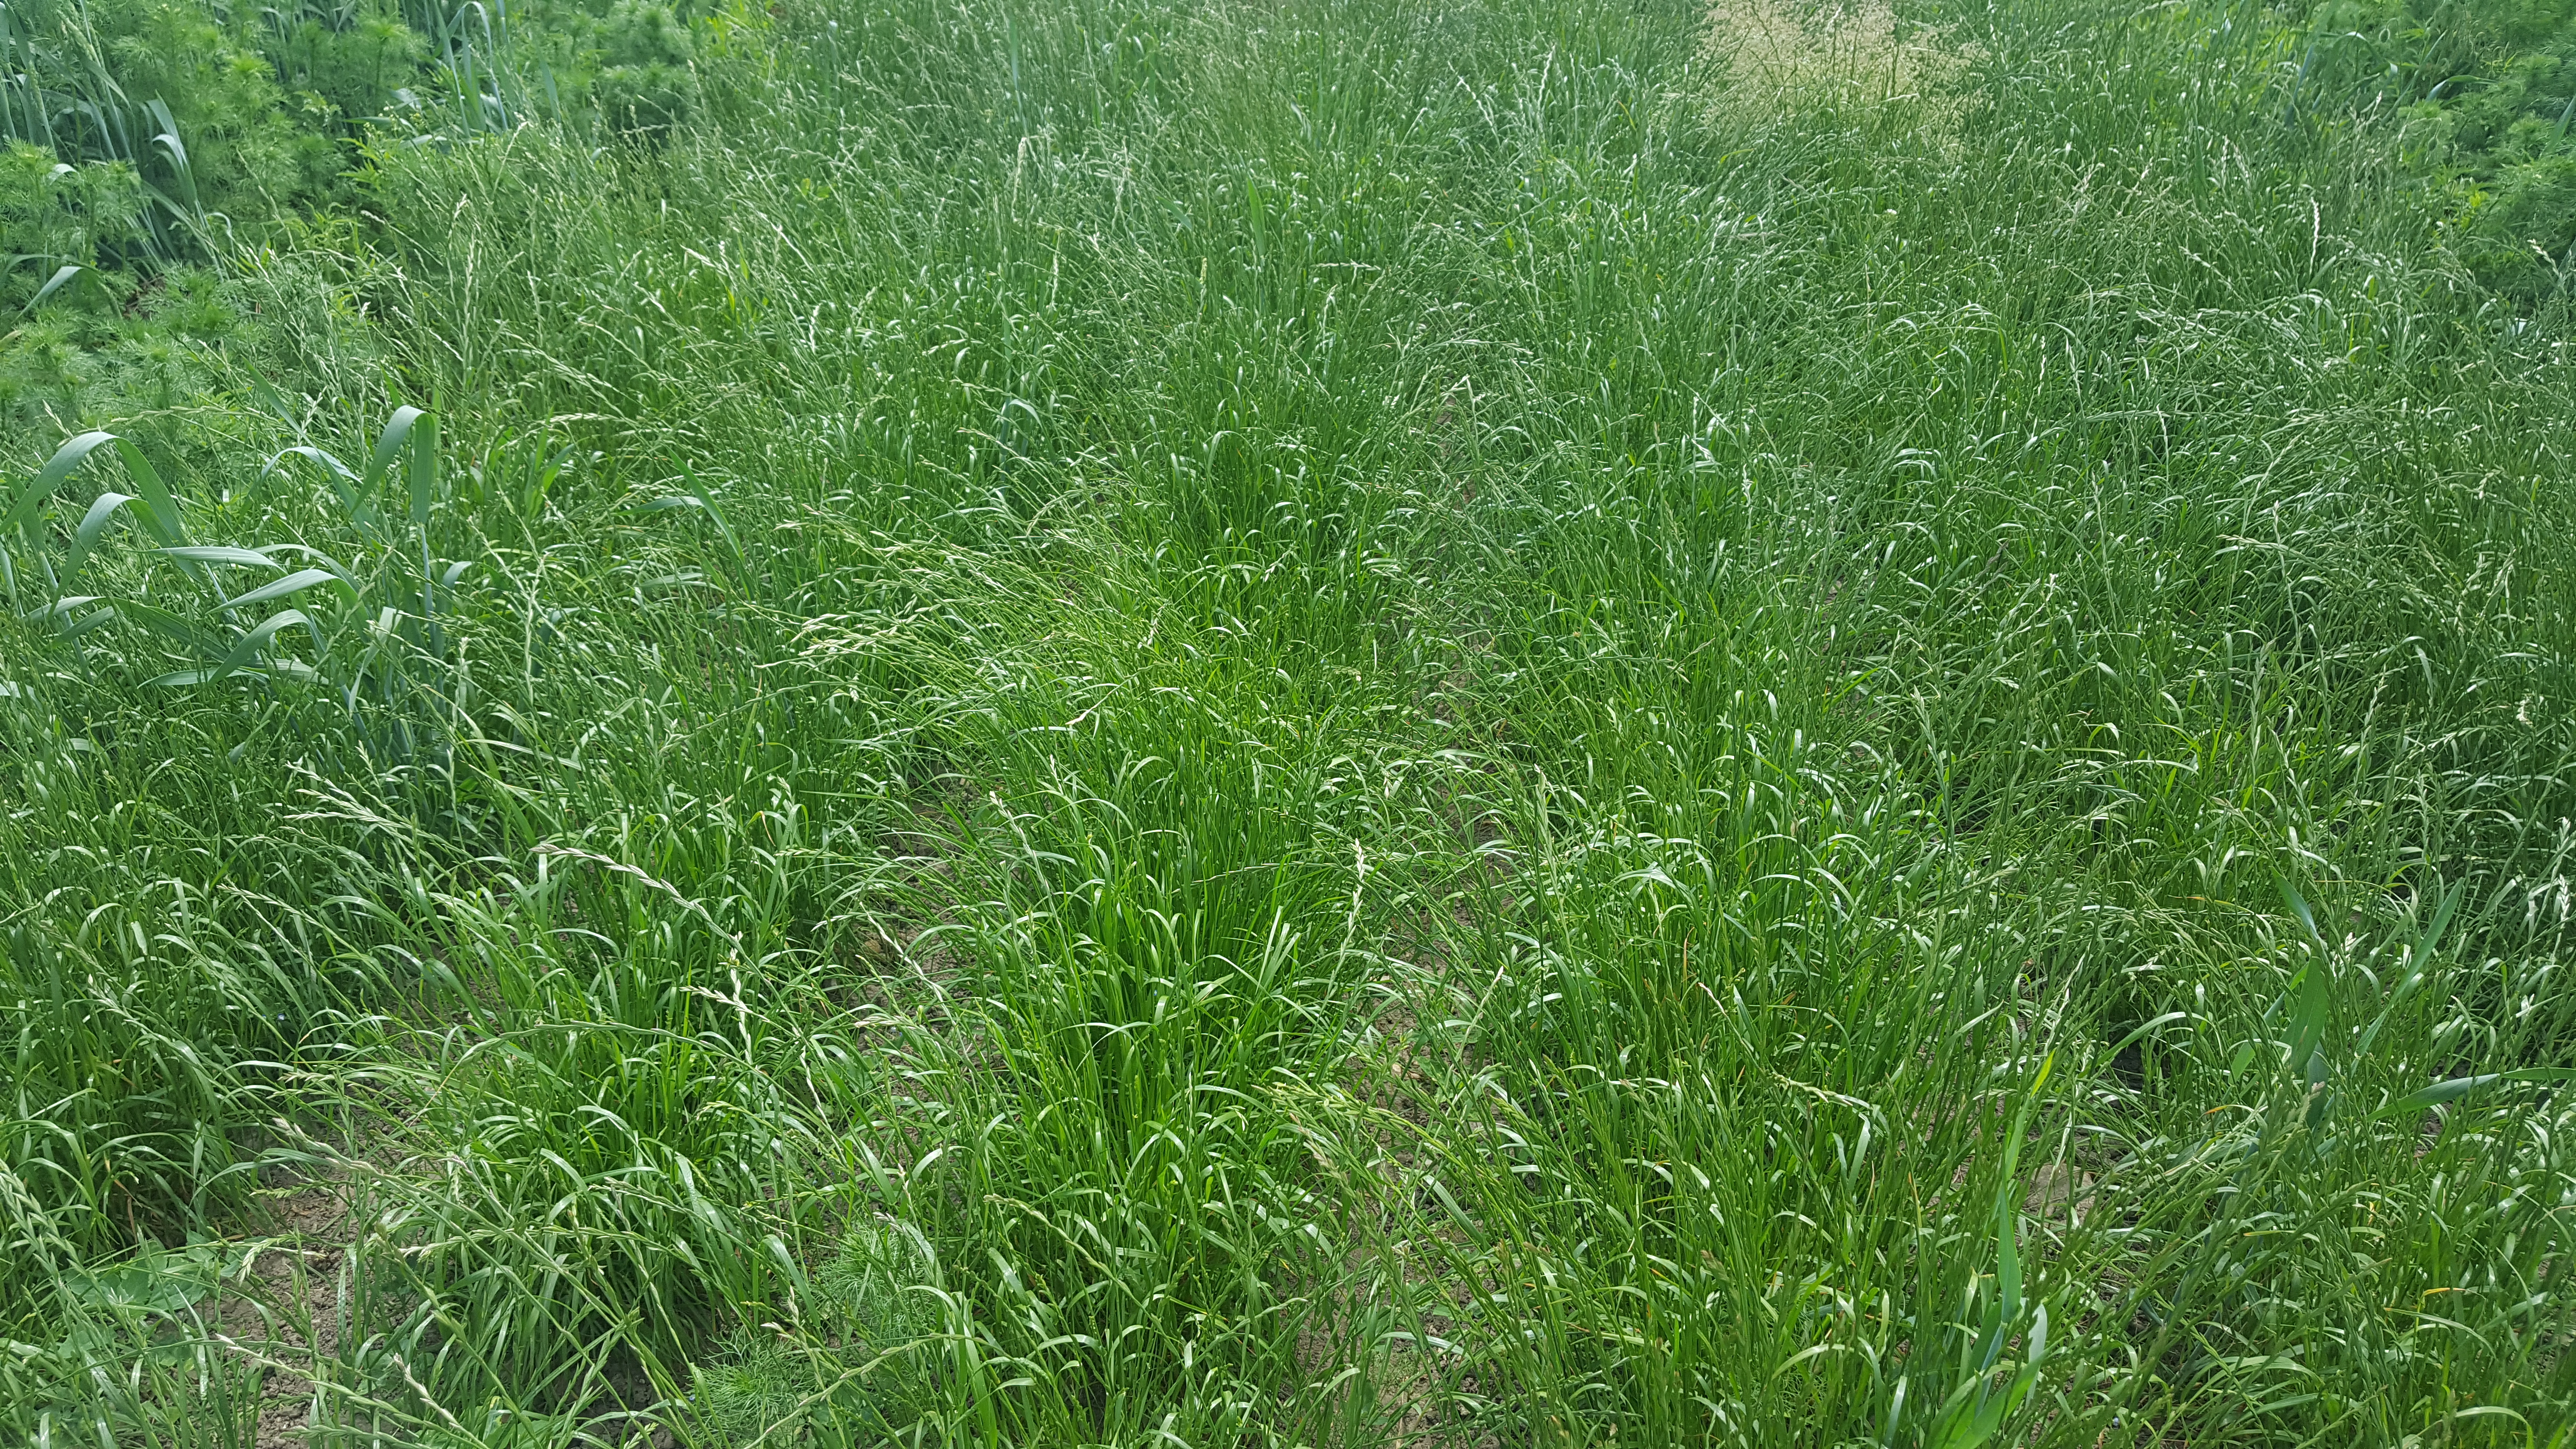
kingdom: Plantae
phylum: Tracheophyta
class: Liliopsida
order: Poales
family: Poaceae
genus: Lolium
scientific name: Lolium perenne
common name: Perennial ryegrass
